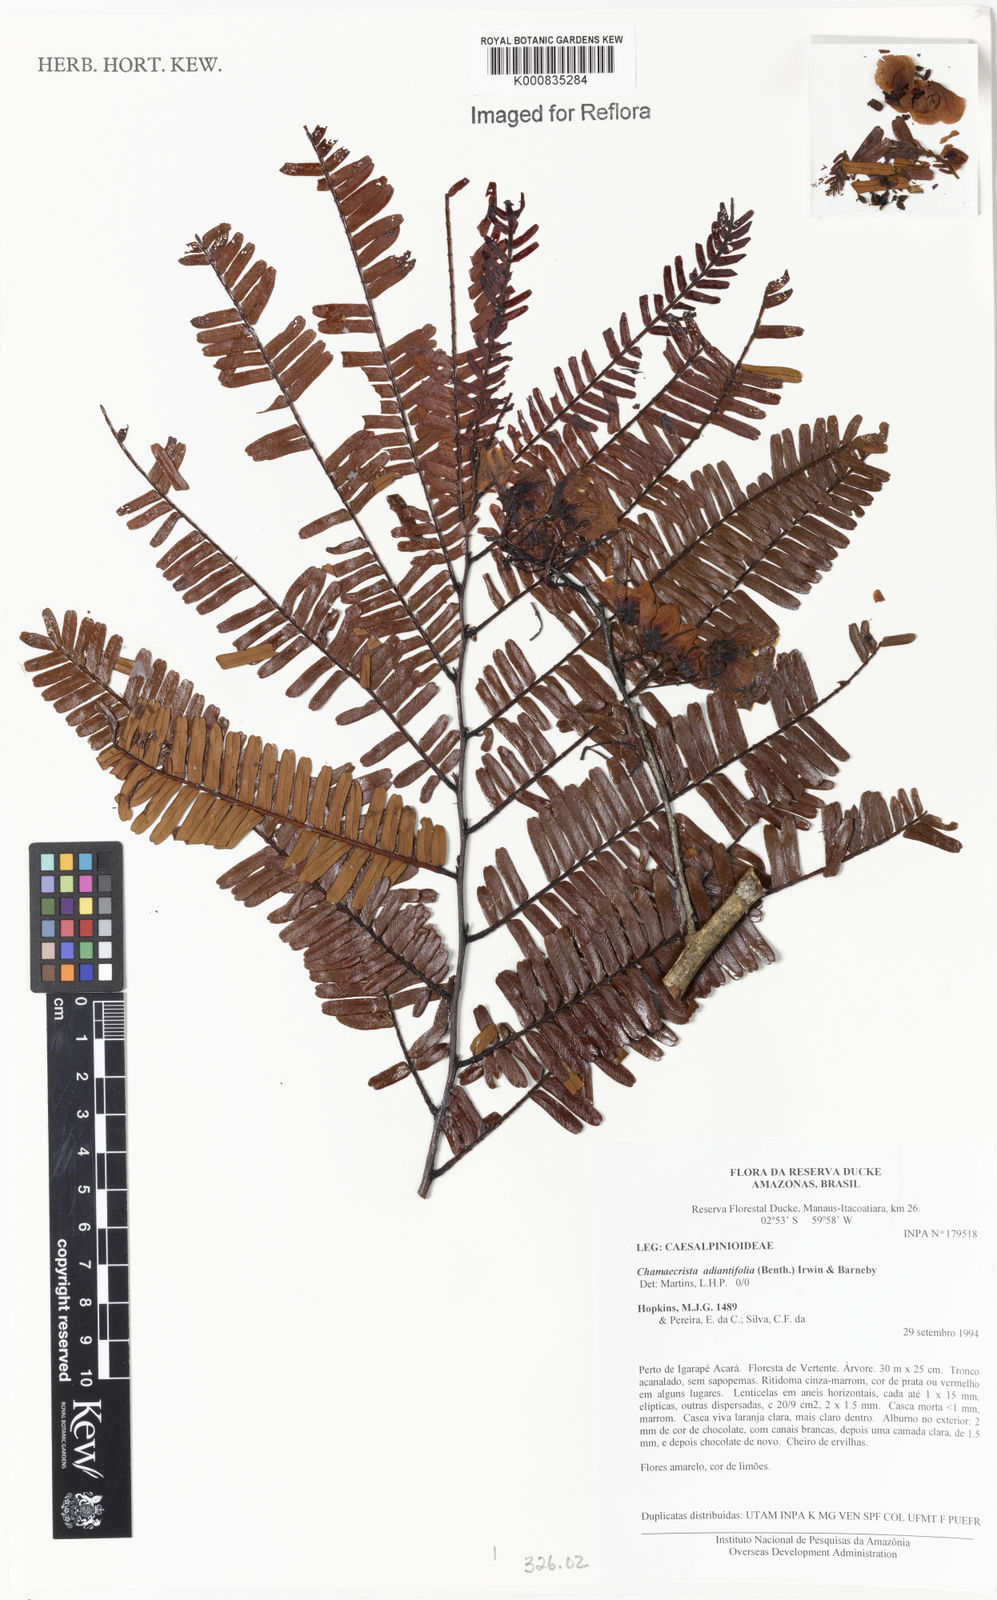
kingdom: Plantae
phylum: Tracheophyta
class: Magnoliopsida
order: Fabales
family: Fabaceae
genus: Chamaecrista
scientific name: Chamaecrista adiantifolia
